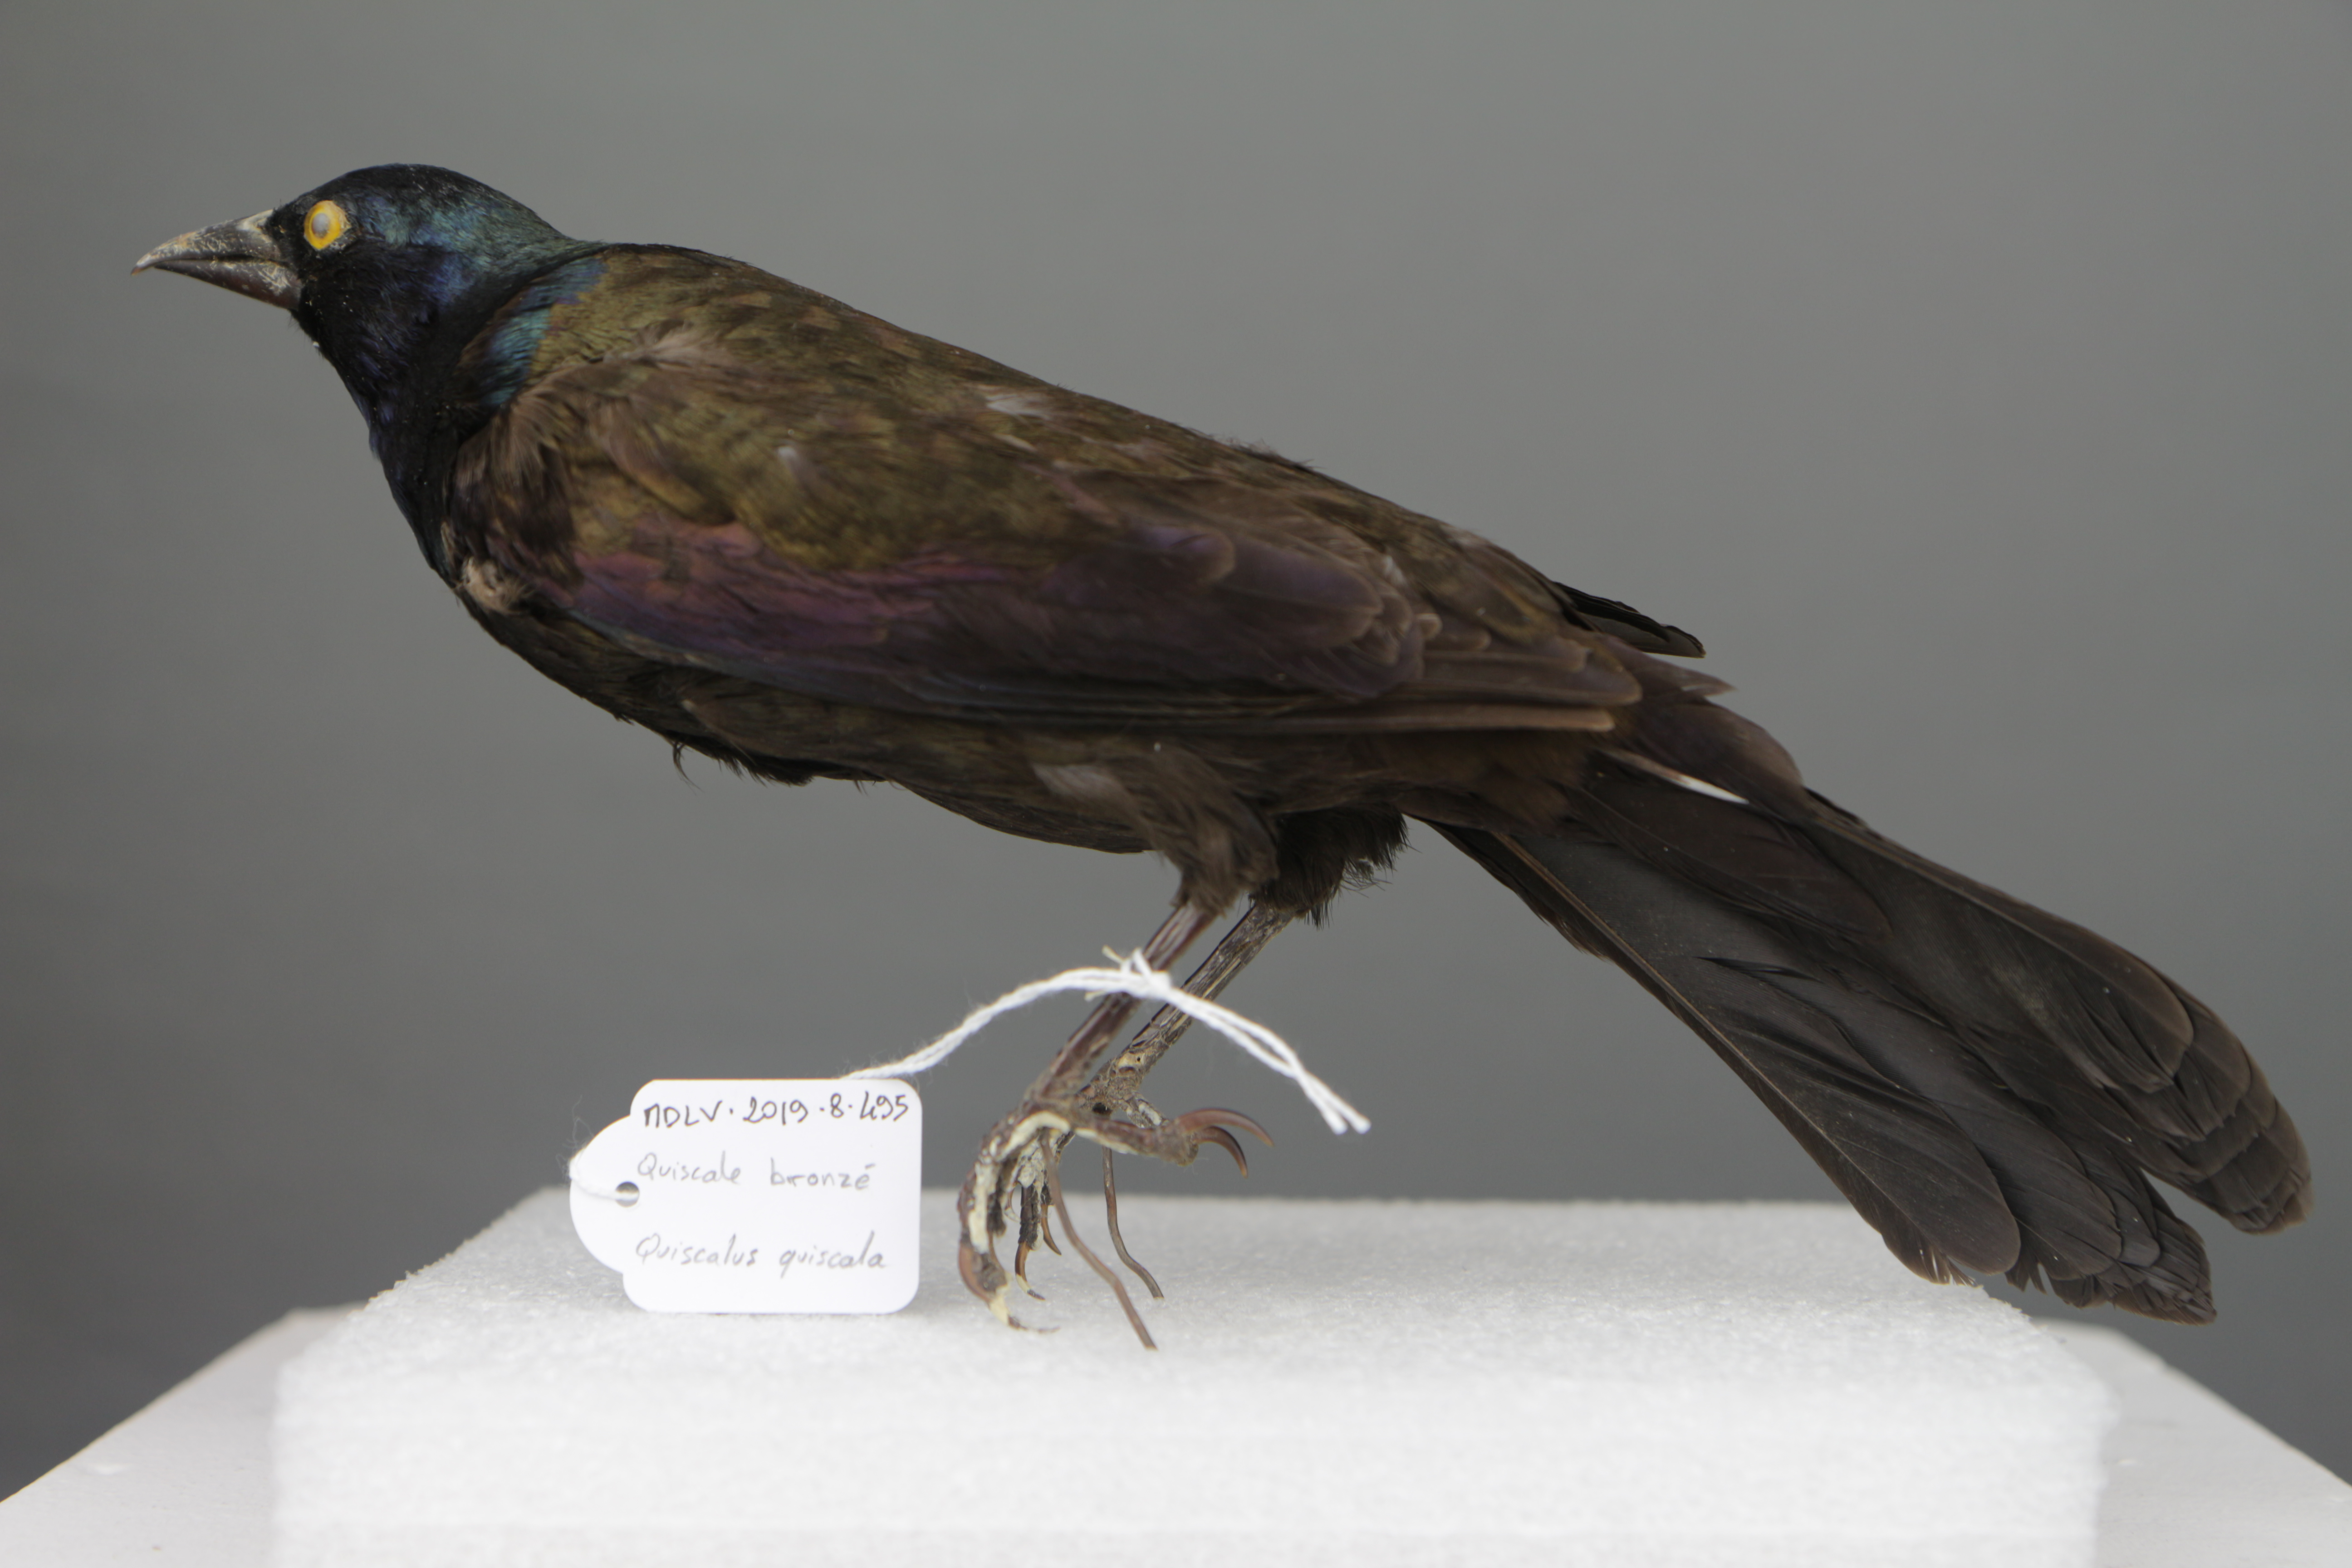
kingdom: Animalia
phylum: Chordata
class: Aves
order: Passeriformes
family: Icteridae
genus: Quiscalus
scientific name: Quiscalus quiscula
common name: Common grackle
